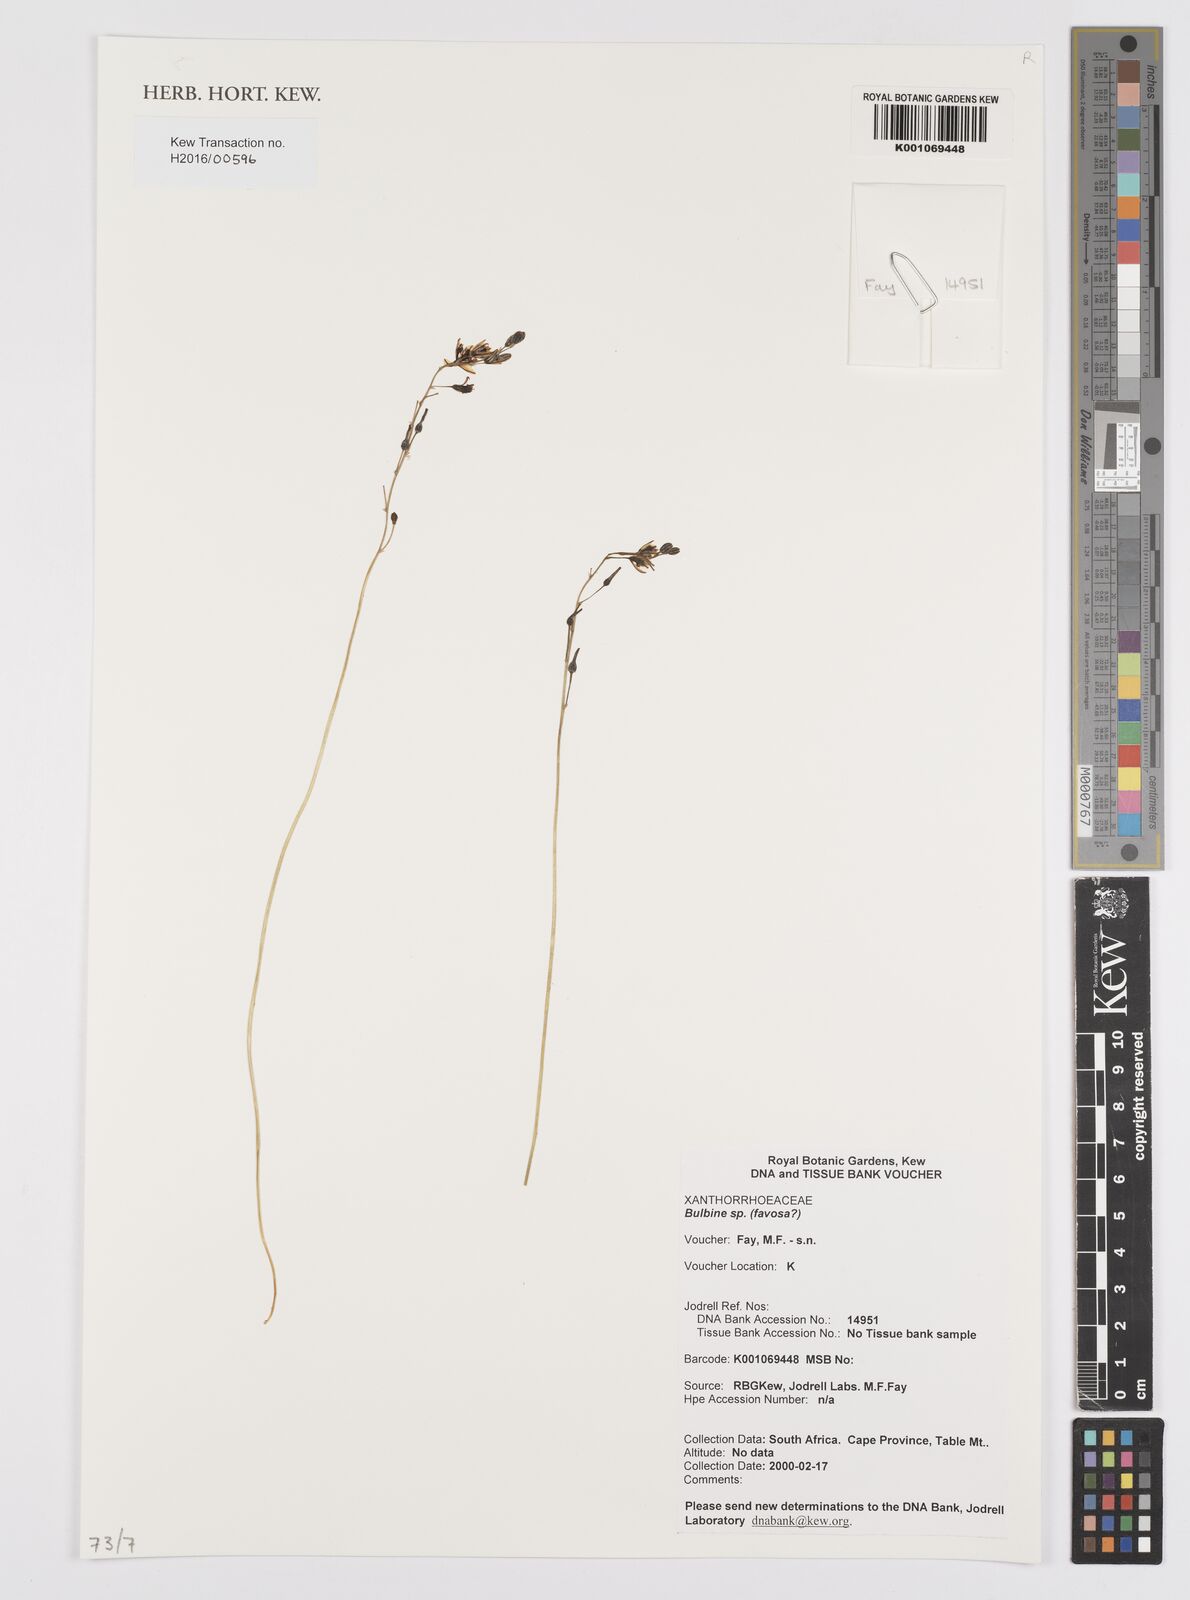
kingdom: Plantae
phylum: Tracheophyta
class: Liliopsida
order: Asparagales
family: Asphodelaceae
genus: Bulbine
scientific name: Bulbine favosa
